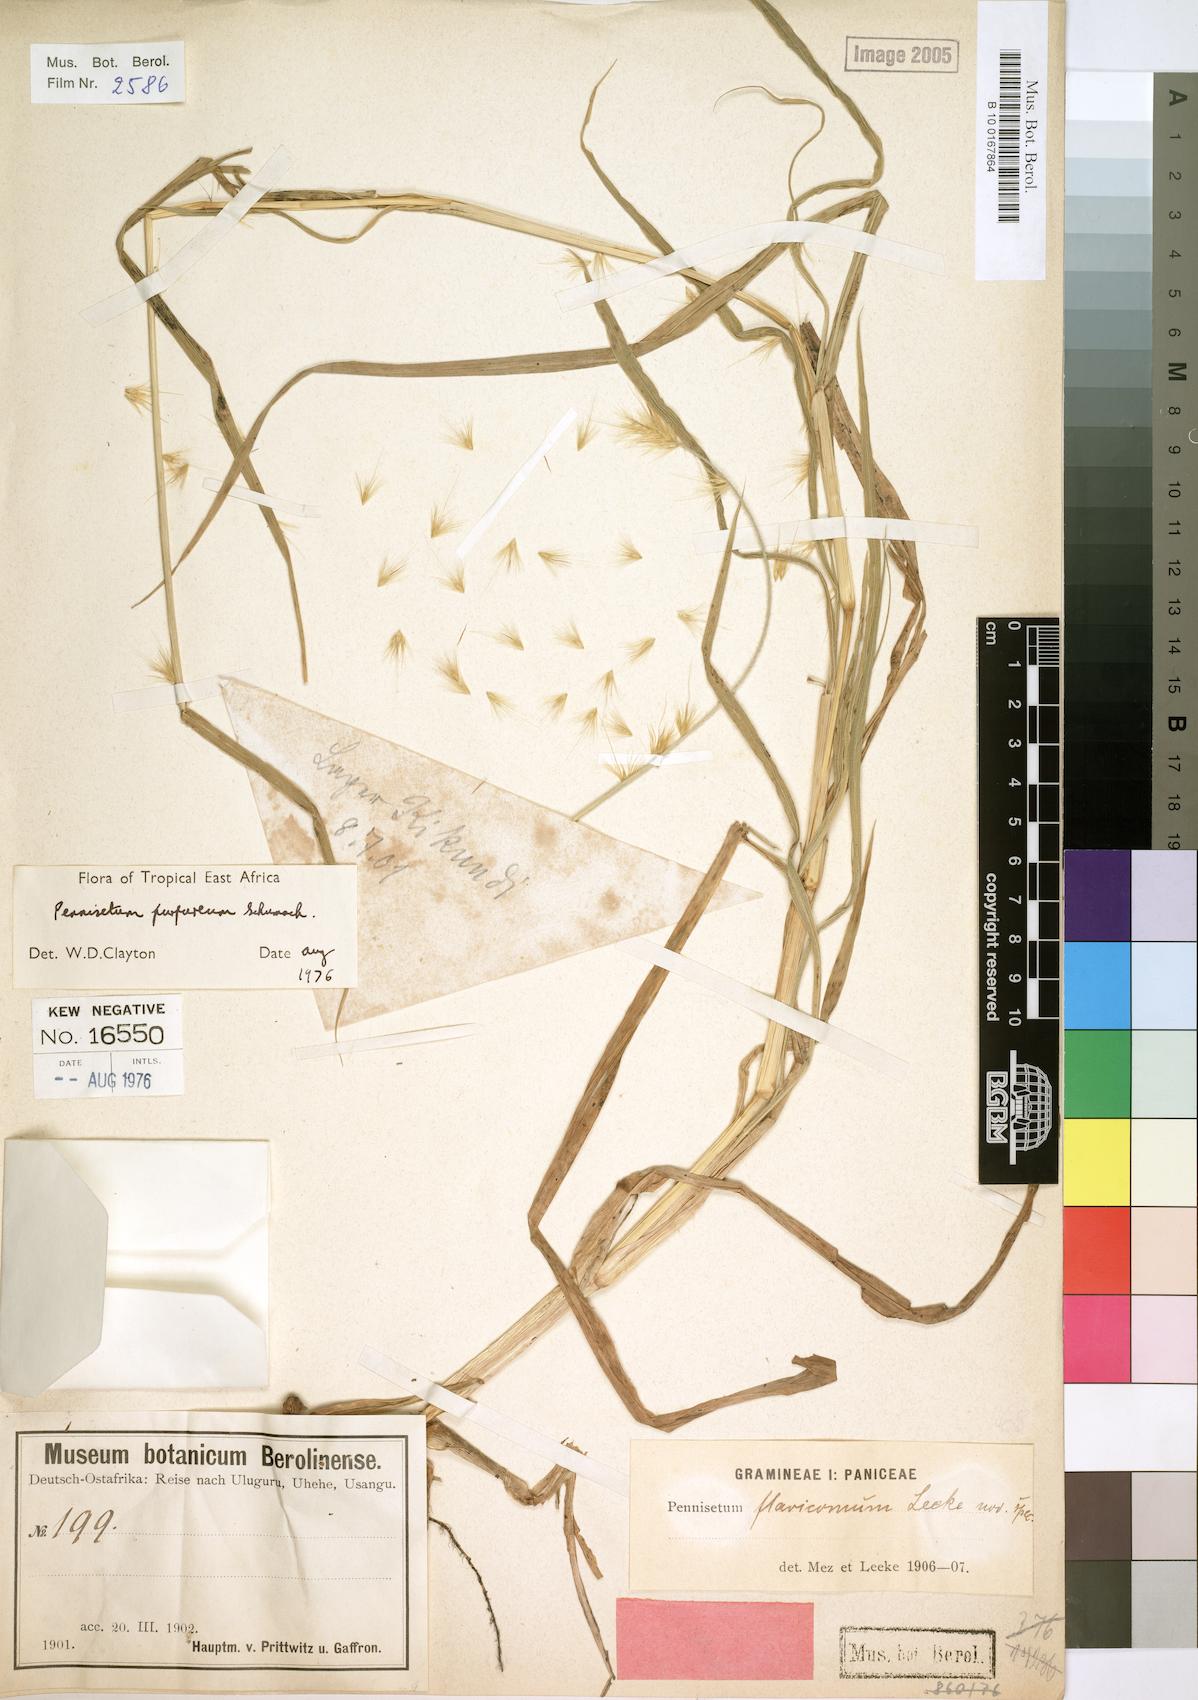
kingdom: Plantae
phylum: Tracheophyta
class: Liliopsida
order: Poales
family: Poaceae
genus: Cenchrus
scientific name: Cenchrus purpureus
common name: Elephant grass
